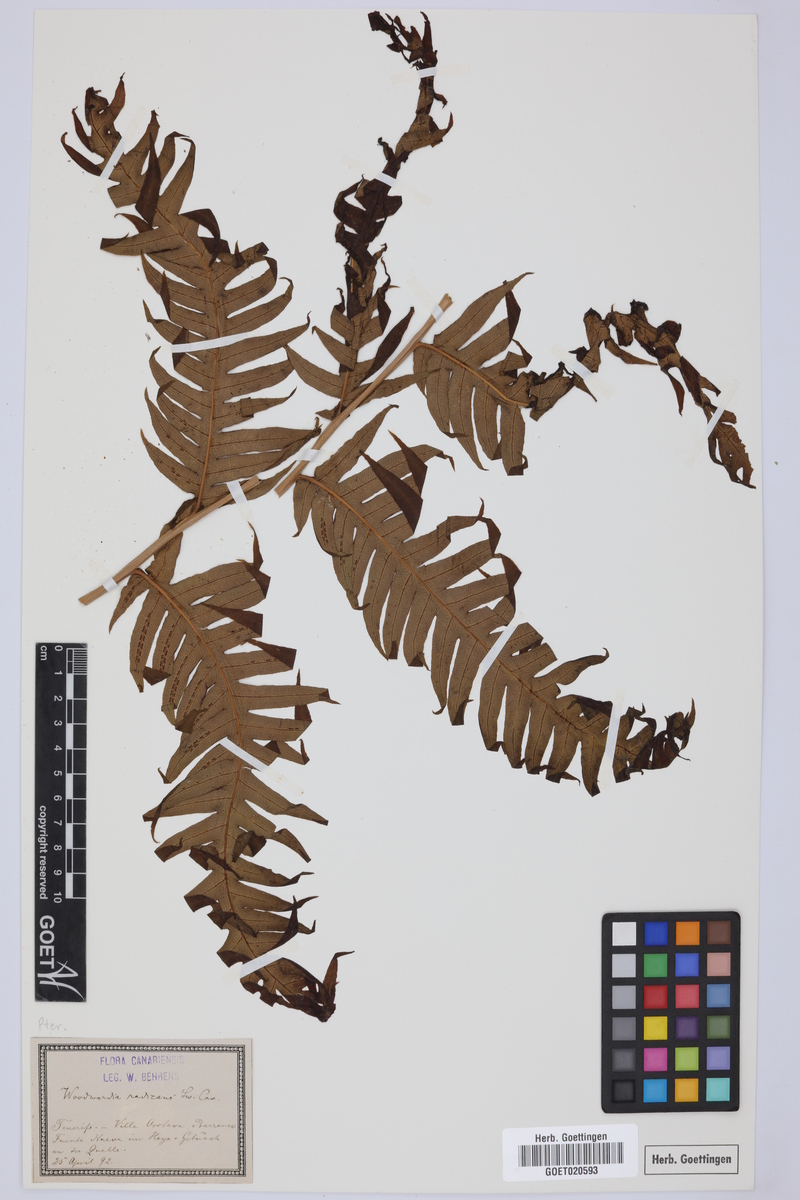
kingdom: Plantae
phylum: Tracheophyta
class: Polypodiopsida
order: Polypodiales
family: Blechnaceae
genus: Woodwardia
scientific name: Woodwardia radicans
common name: Rooting chainfern
